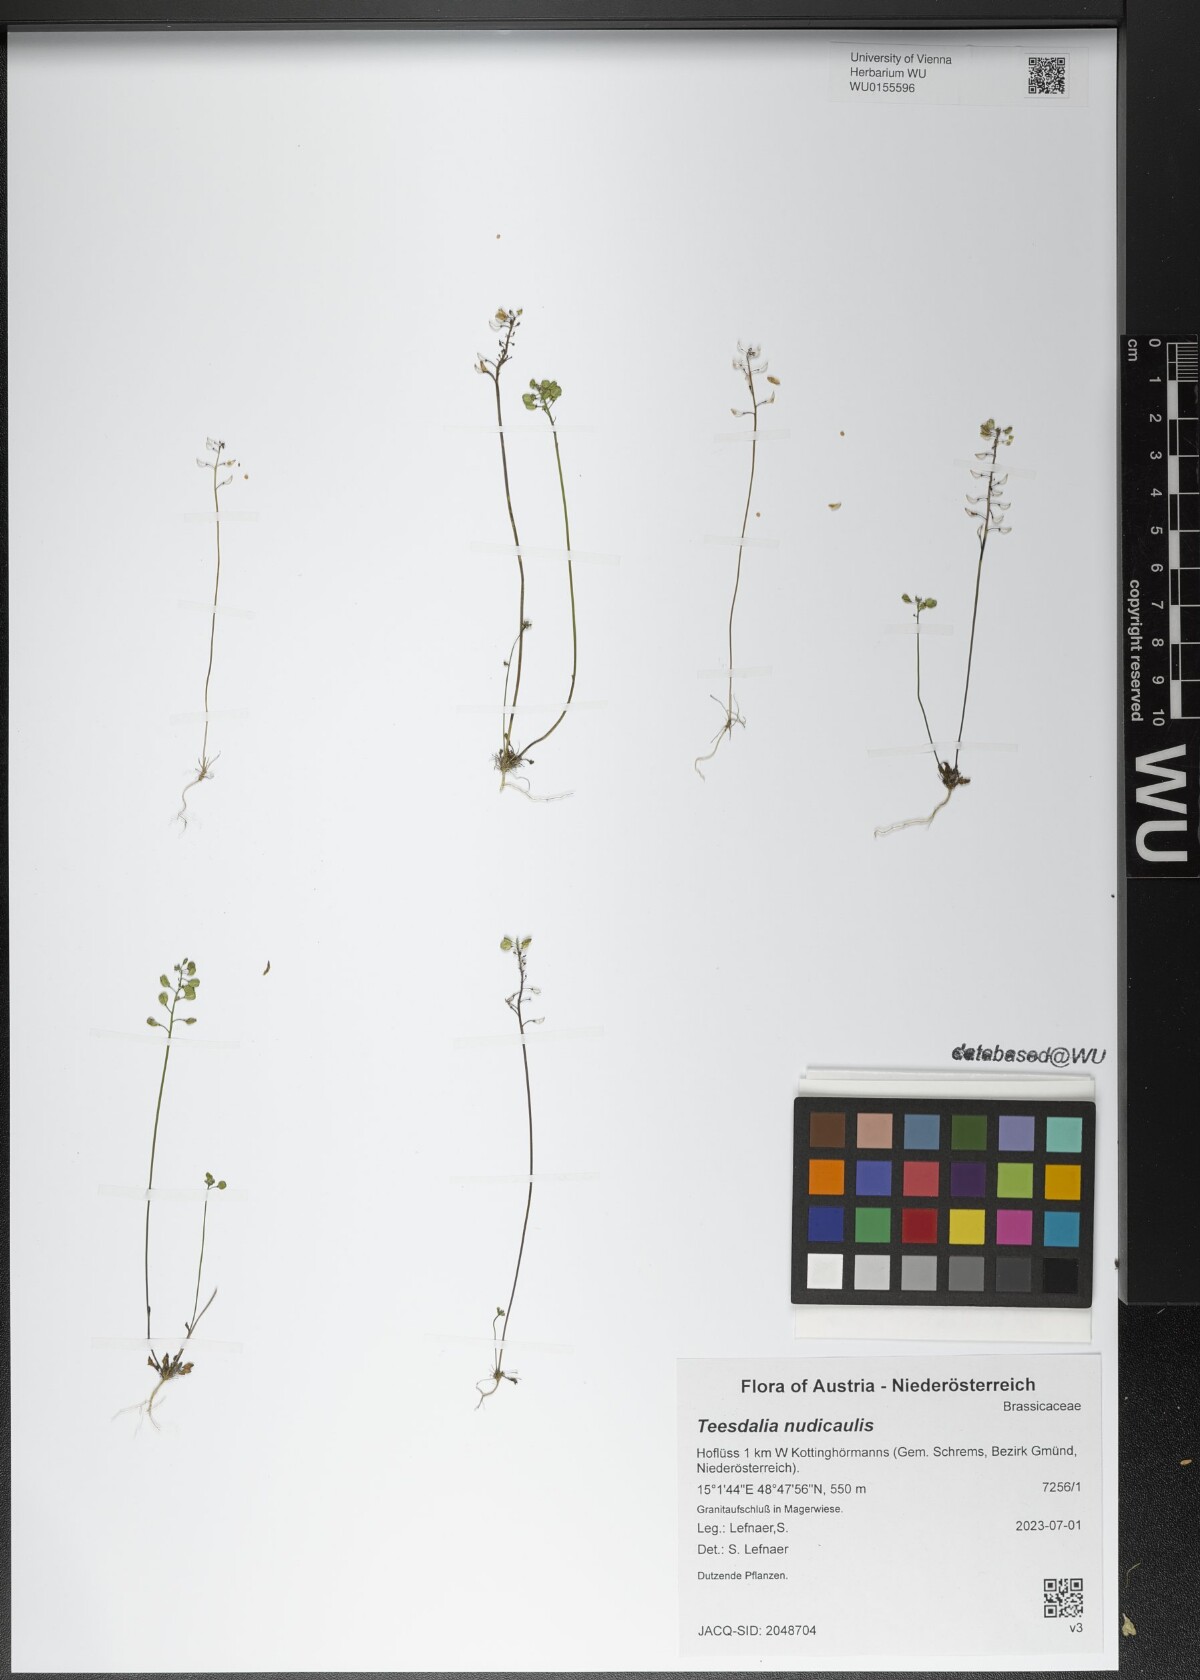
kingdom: Plantae
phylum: Tracheophyta
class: Magnoliopsida
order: Brassicales
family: Brassicaceae
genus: Teesdalia
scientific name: Teesdalia nudicaulis
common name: Shepherd's cress
